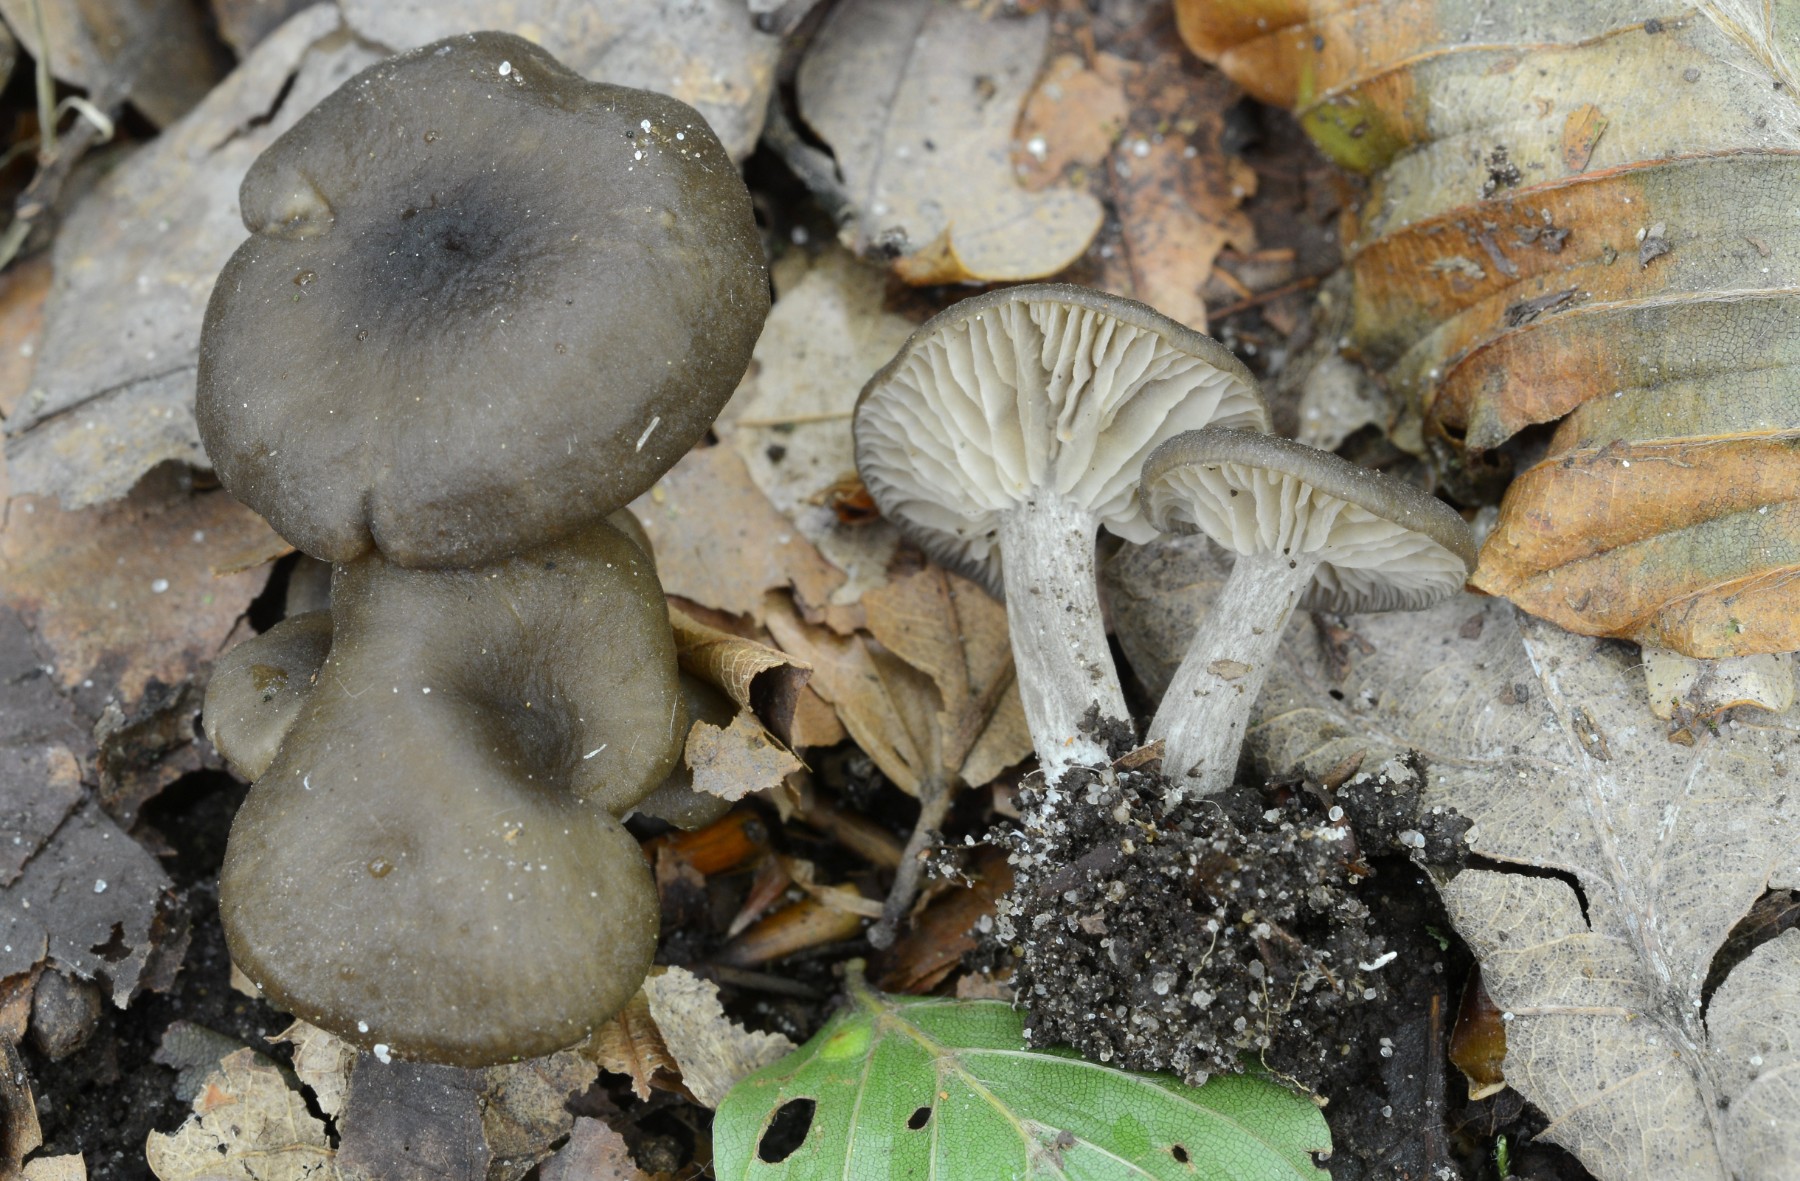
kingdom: Fungi
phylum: Basidiomycota
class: Agaricomycetes
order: Agaricales
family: Entolomataceae
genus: Entoloma
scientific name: Entoloma bryorum
